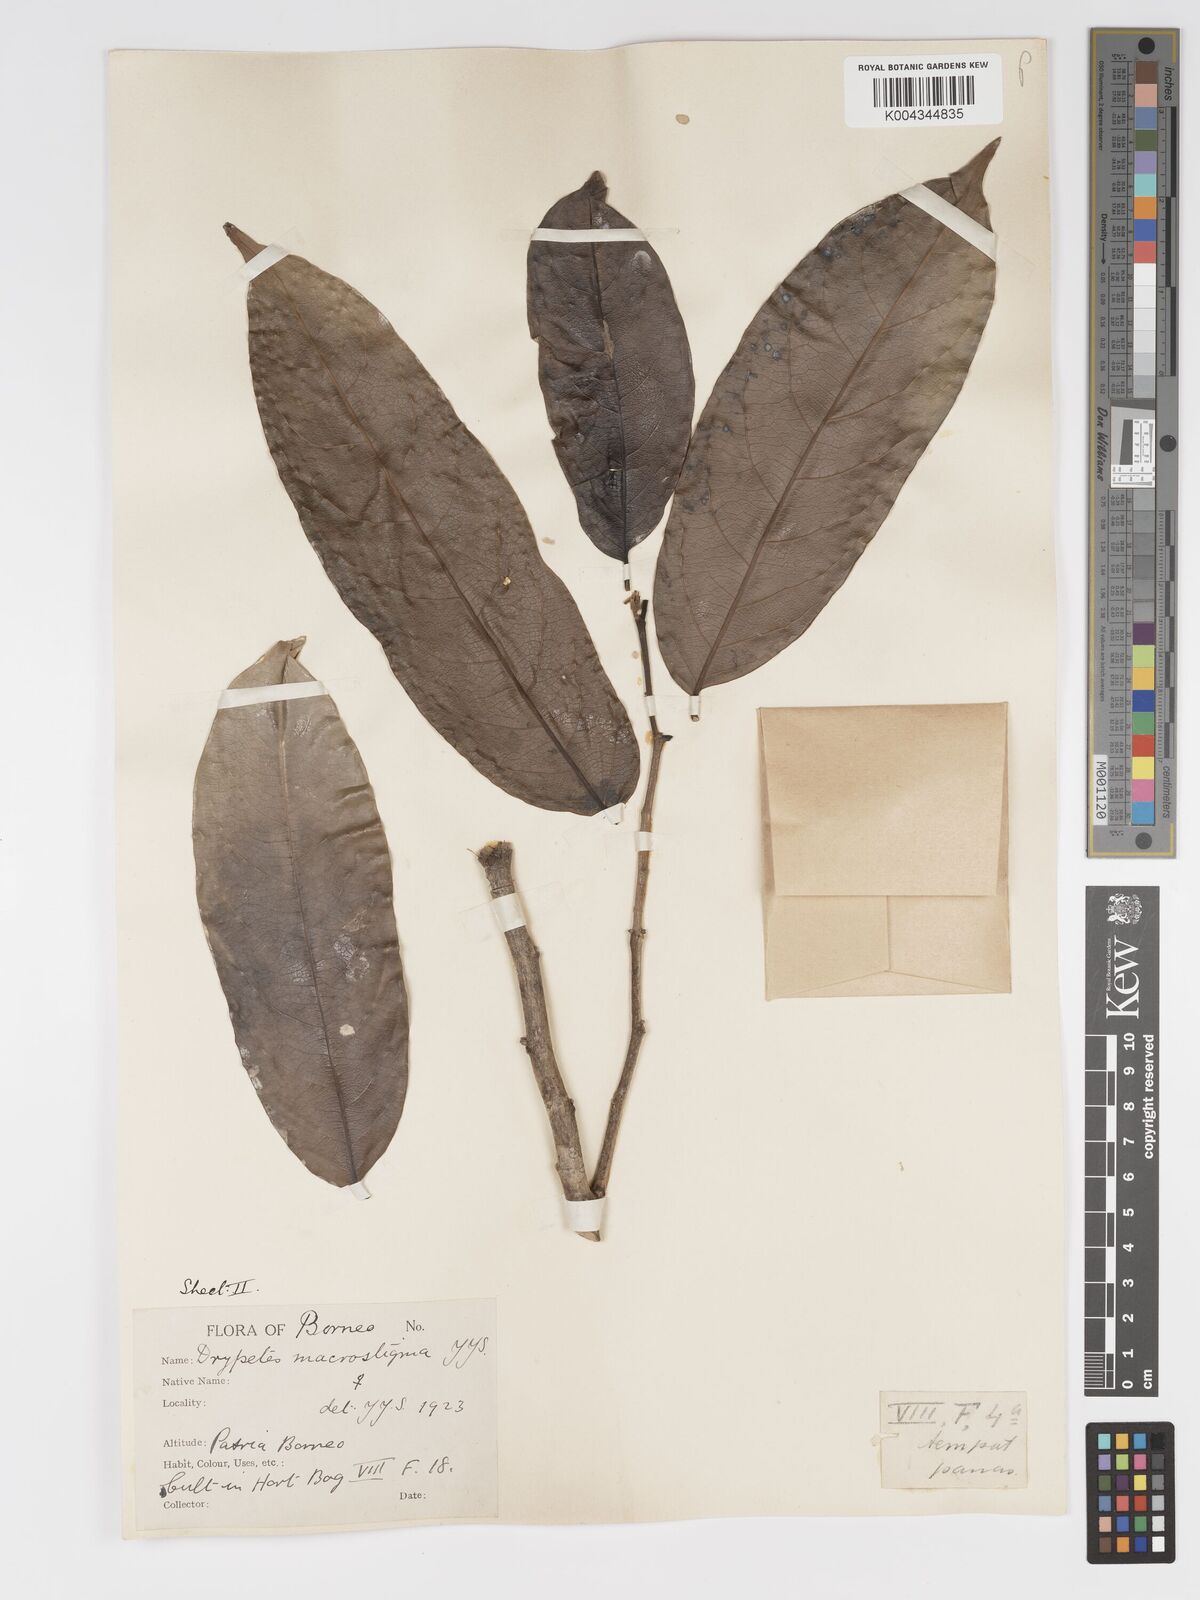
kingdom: Plantae
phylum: Tracheophyta
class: Magnoliopsida
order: Malpighiales
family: Putranjivaceae
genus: Drypetes
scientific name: Drypetes macrostigma
